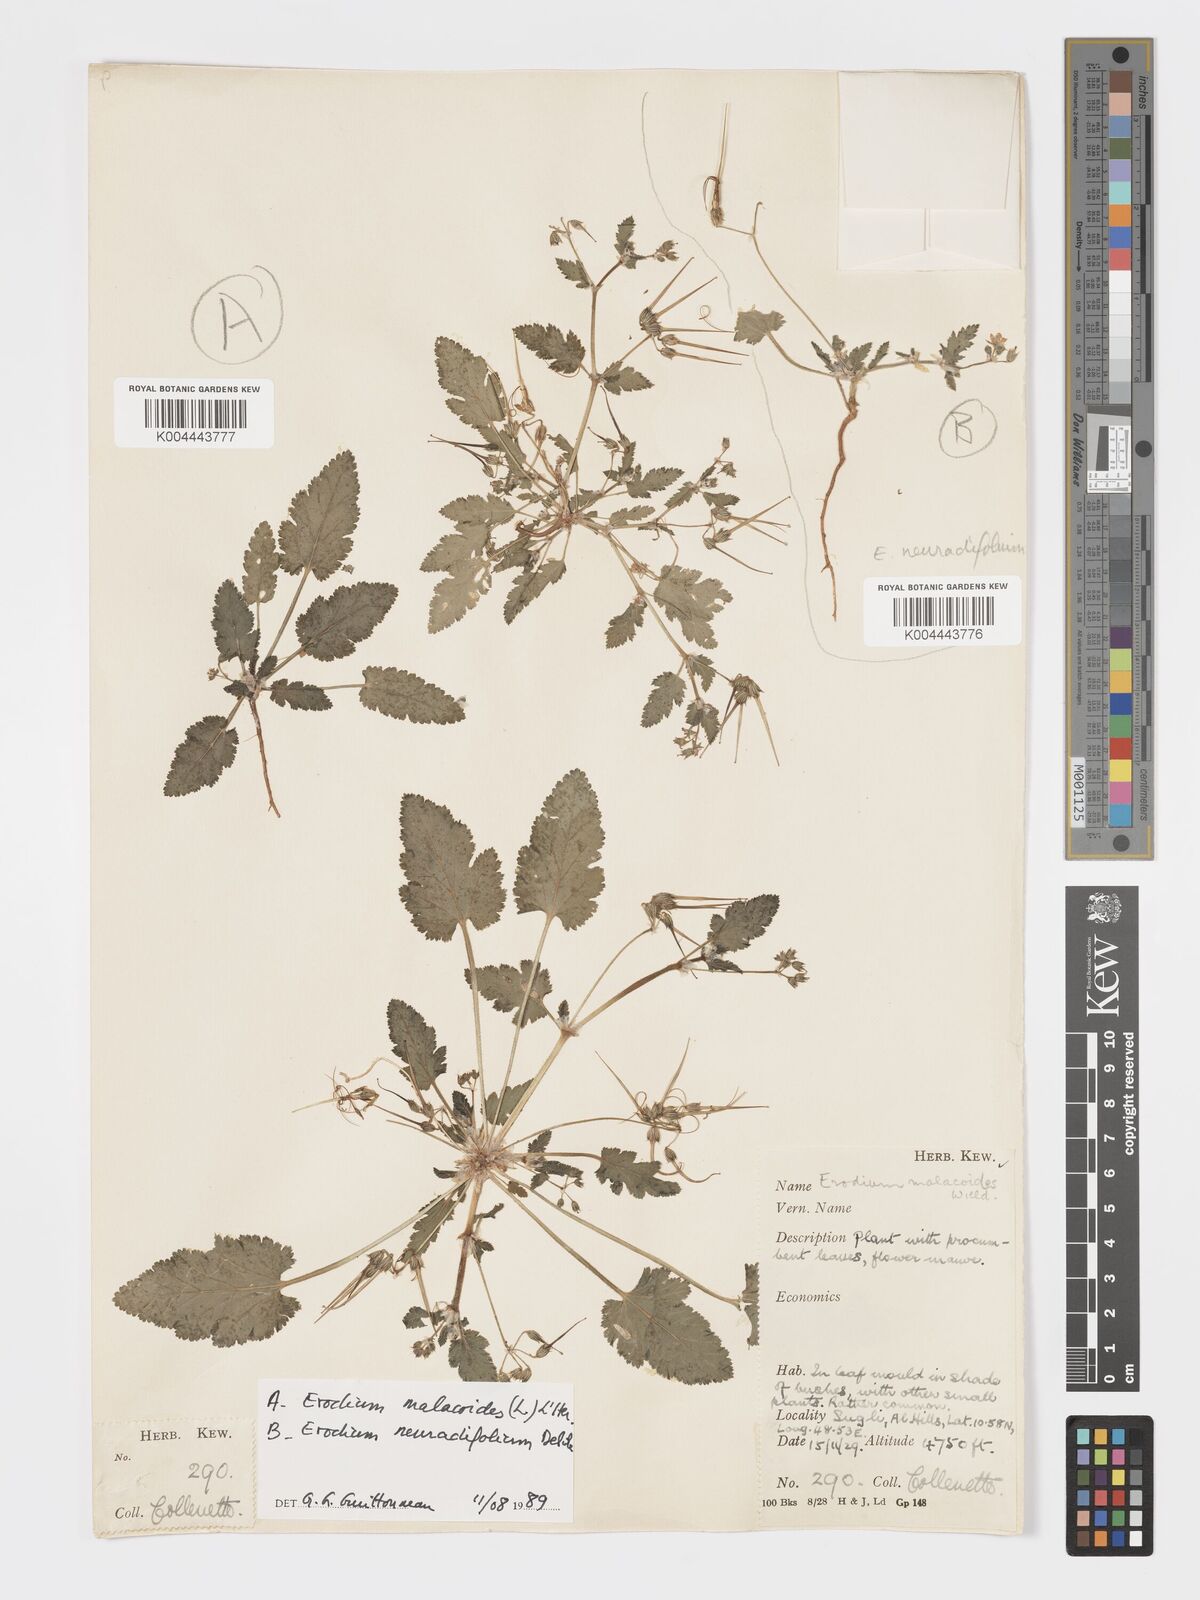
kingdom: Plantae
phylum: Tracheophyta
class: Magnoliopsida
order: Geraniales
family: Geraniaceae
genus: Erodium
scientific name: Erodium malacoides
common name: Soft stork's-bill
